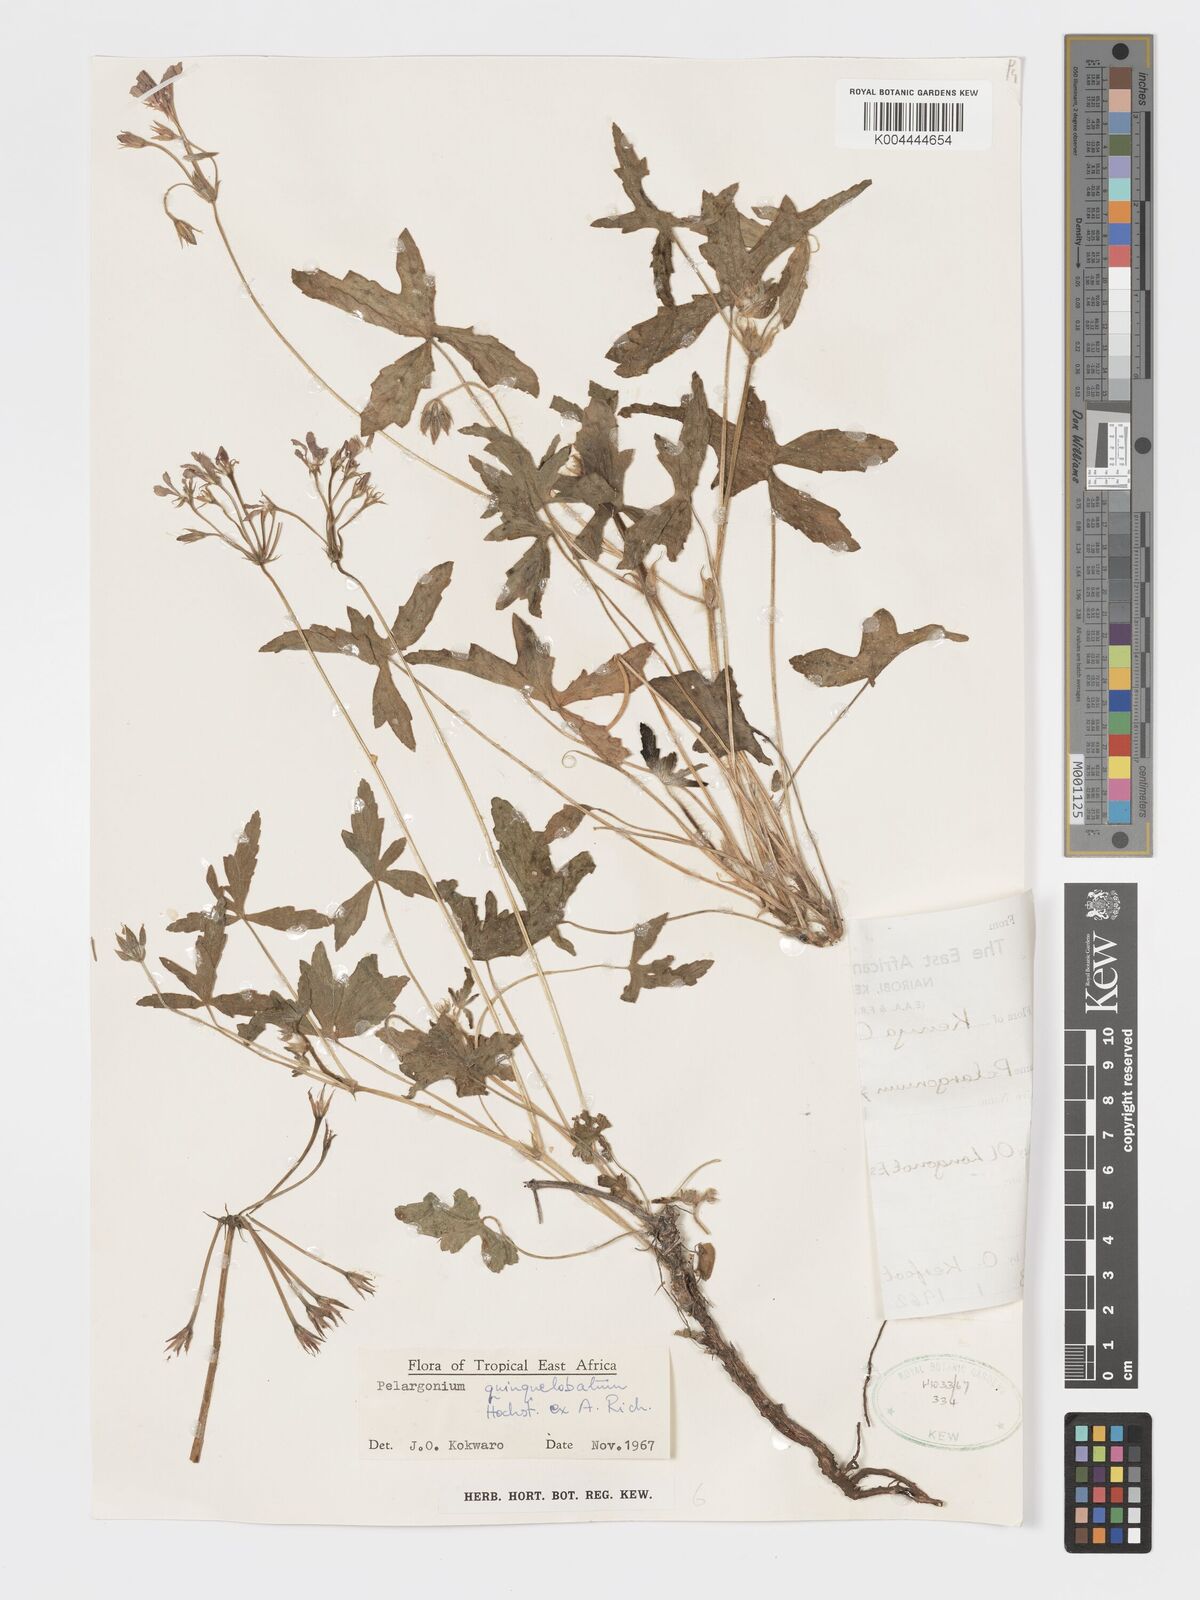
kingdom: Plantae
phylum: Tracheophyta
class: Magnoliopsida
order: Geraniales
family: Geraniaceae
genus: Pelargonium
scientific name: Pelargonium quinquelobatum
